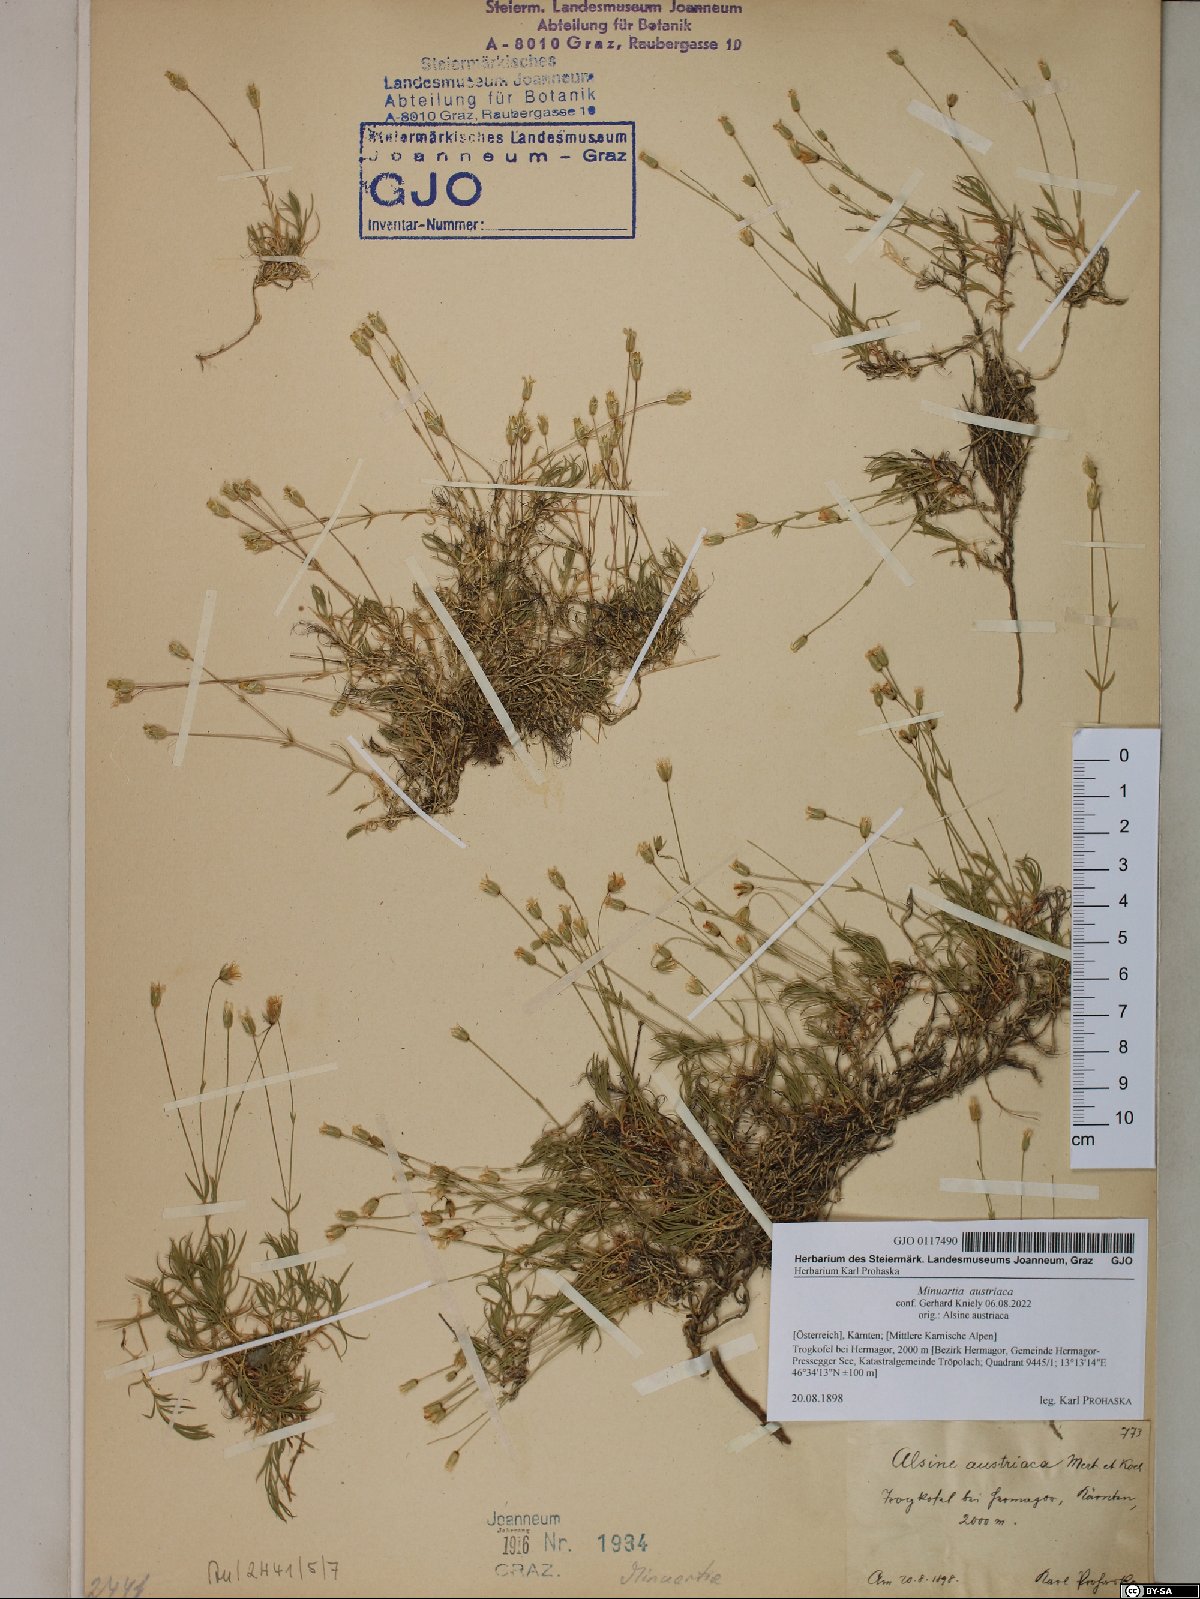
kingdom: Plantae
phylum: Tracheophyta
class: Magnoliopsida
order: Caryophyllales
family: Caryophyllaceae
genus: Sabulina
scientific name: Sabulina austriaca
